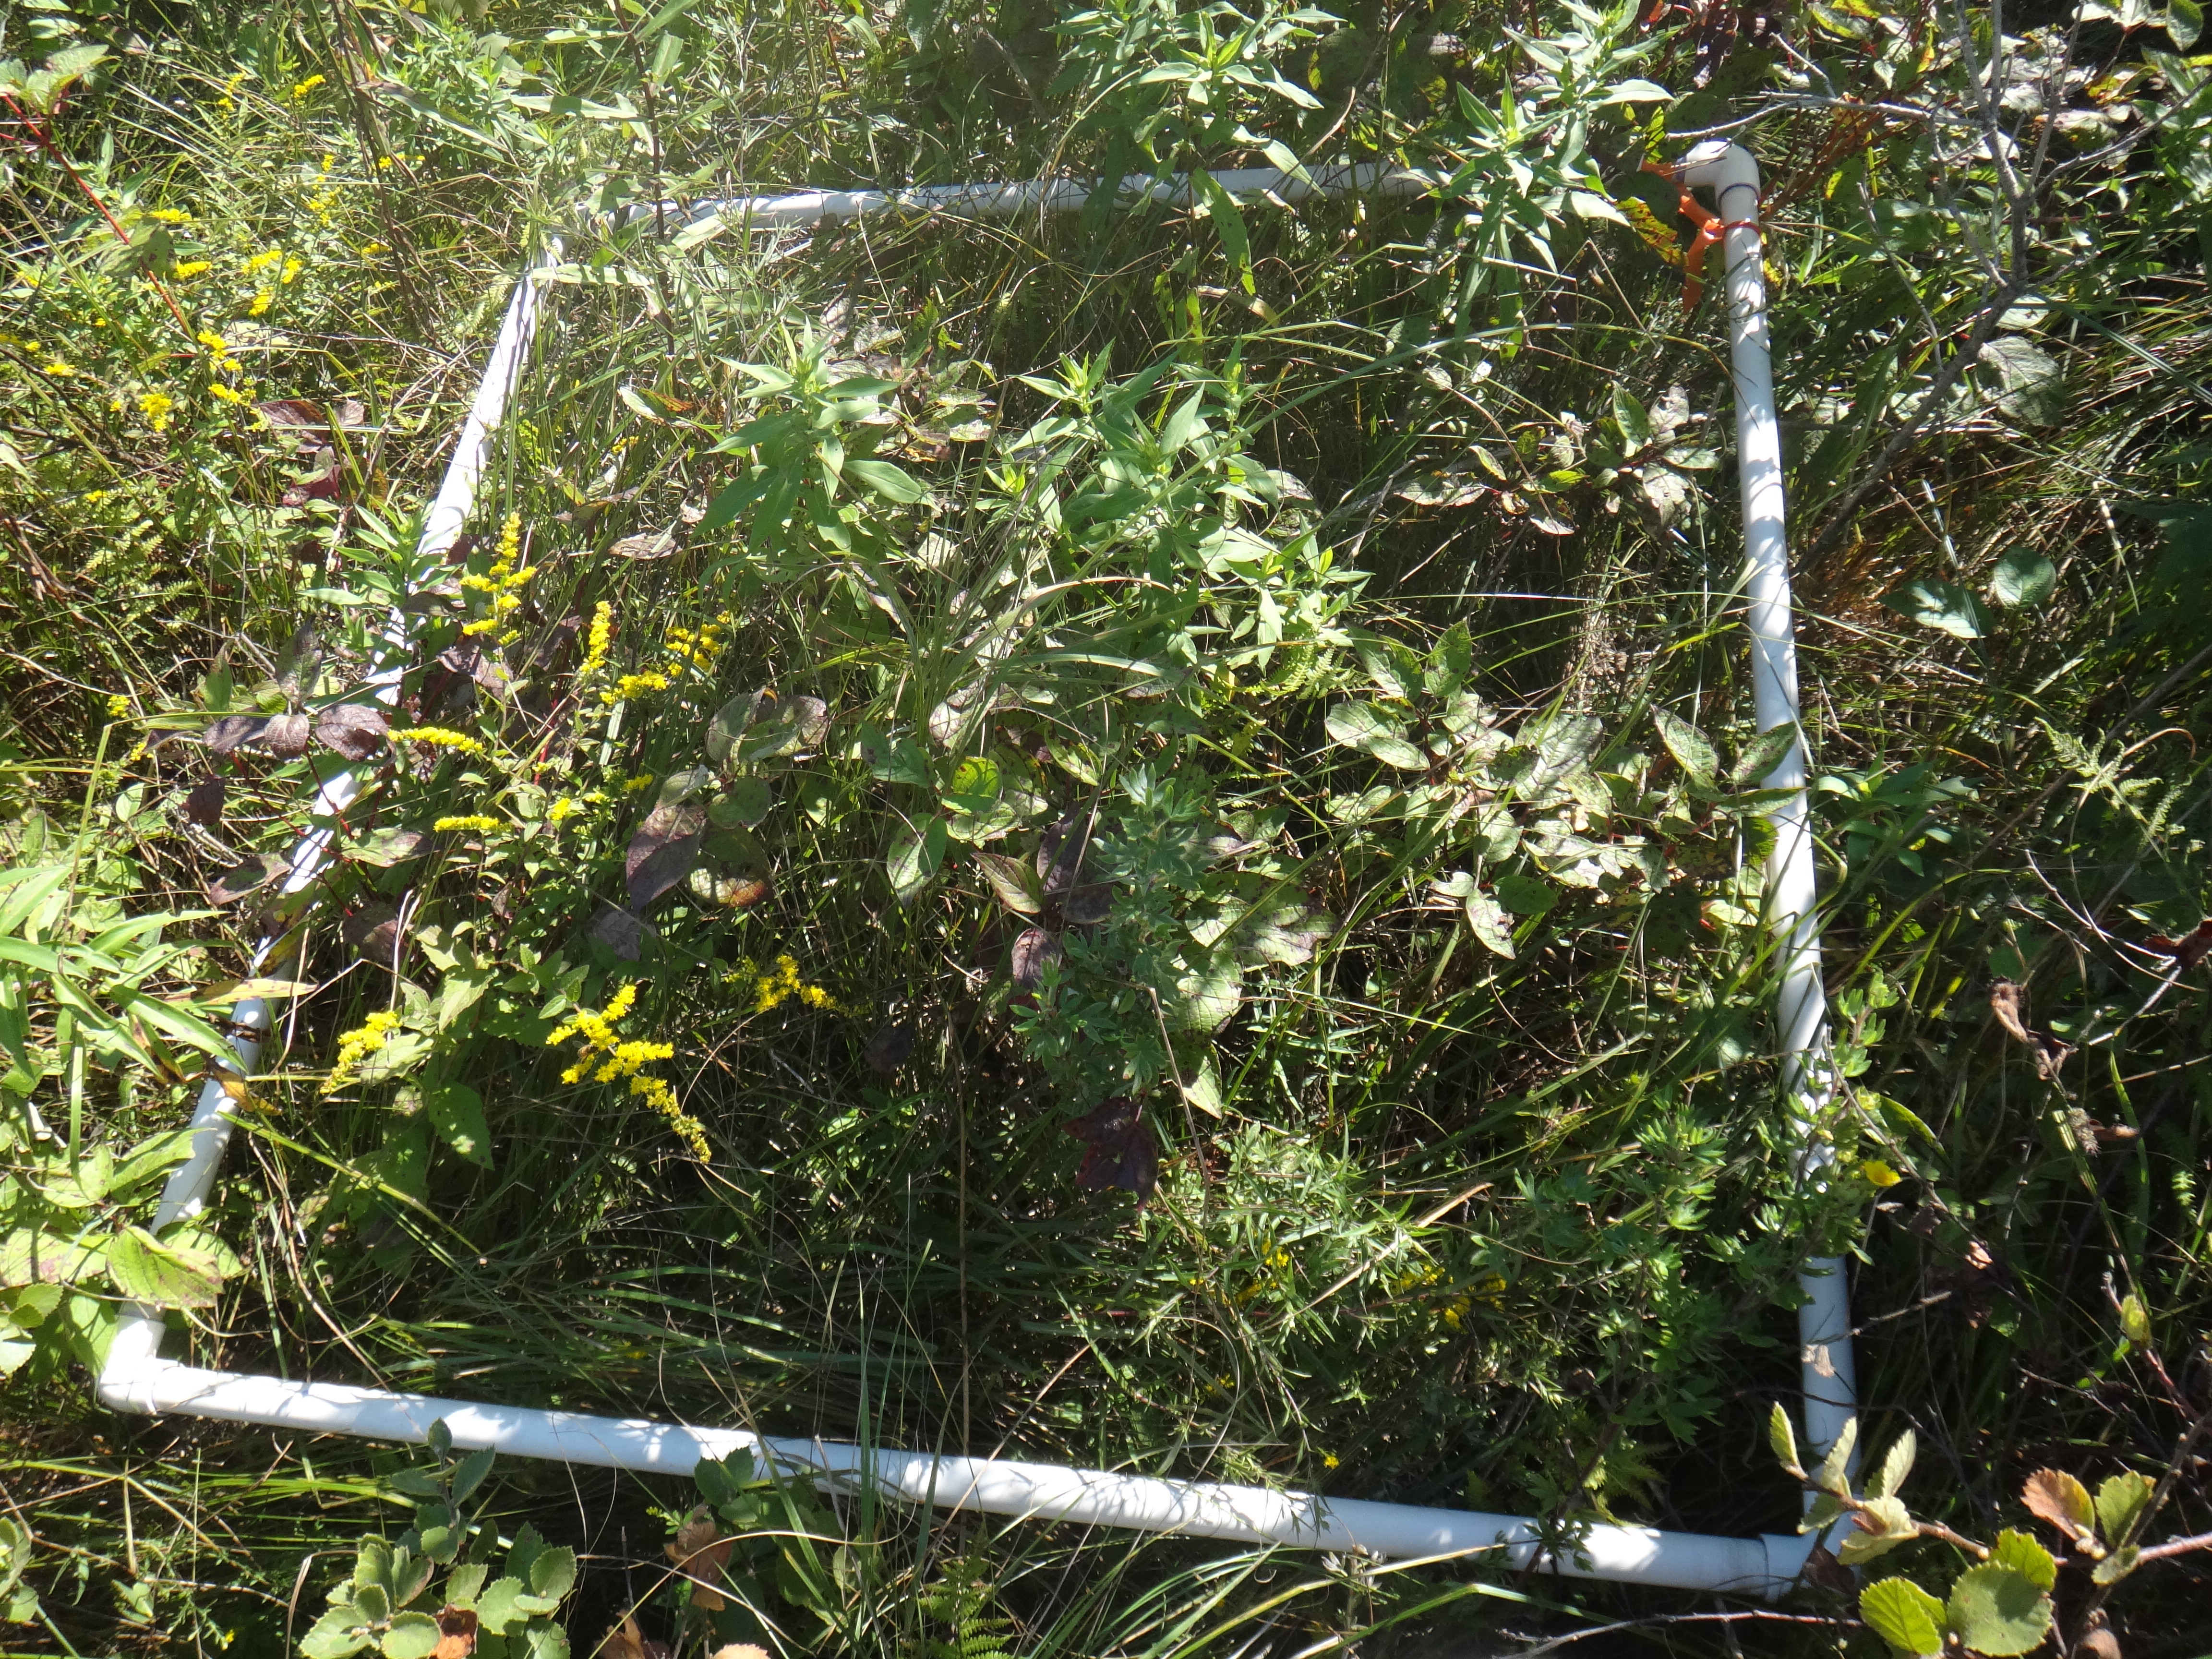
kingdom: Plantae
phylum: Tracheophyta
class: Magnoliopsida
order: Asterales
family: Asteraceae
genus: Symphyotrichum
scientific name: Symphyotrichum firmum
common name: Shining aster
